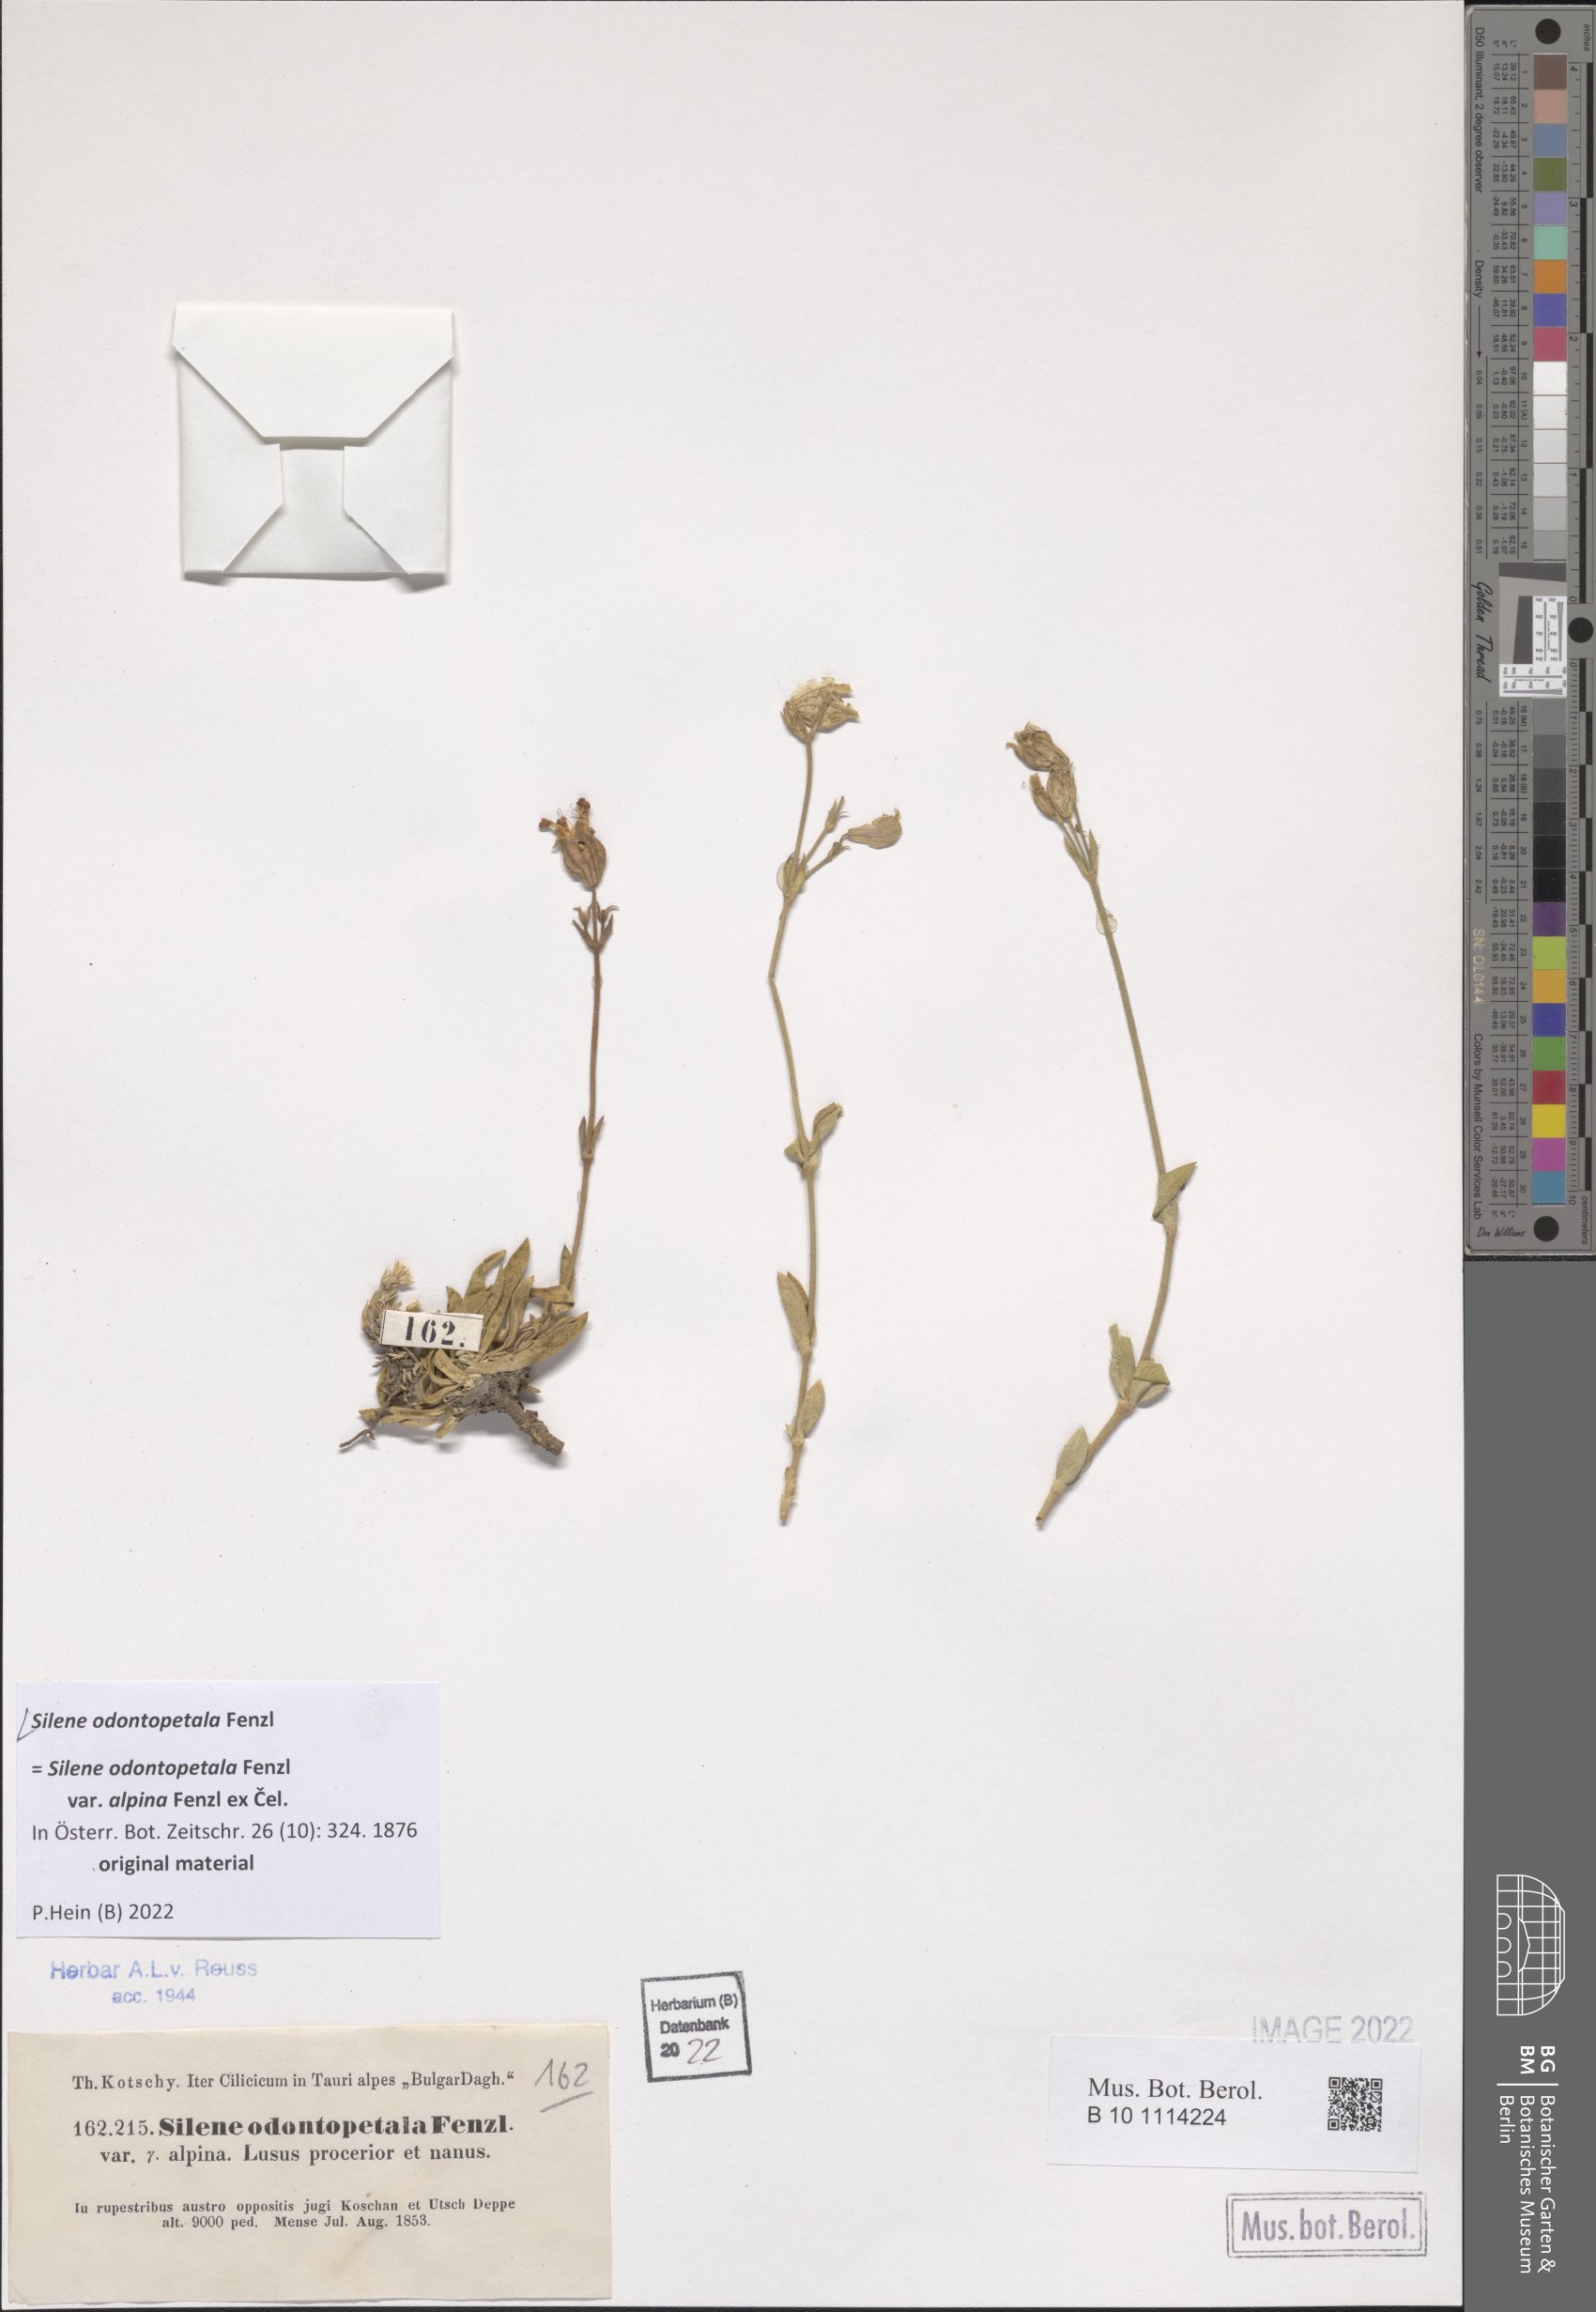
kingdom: Plantae
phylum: Tracheophyta
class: Magnoliopsida
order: Caryophyllales
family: Caryophyllaceae
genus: Silene
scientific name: Silene odontopetala
